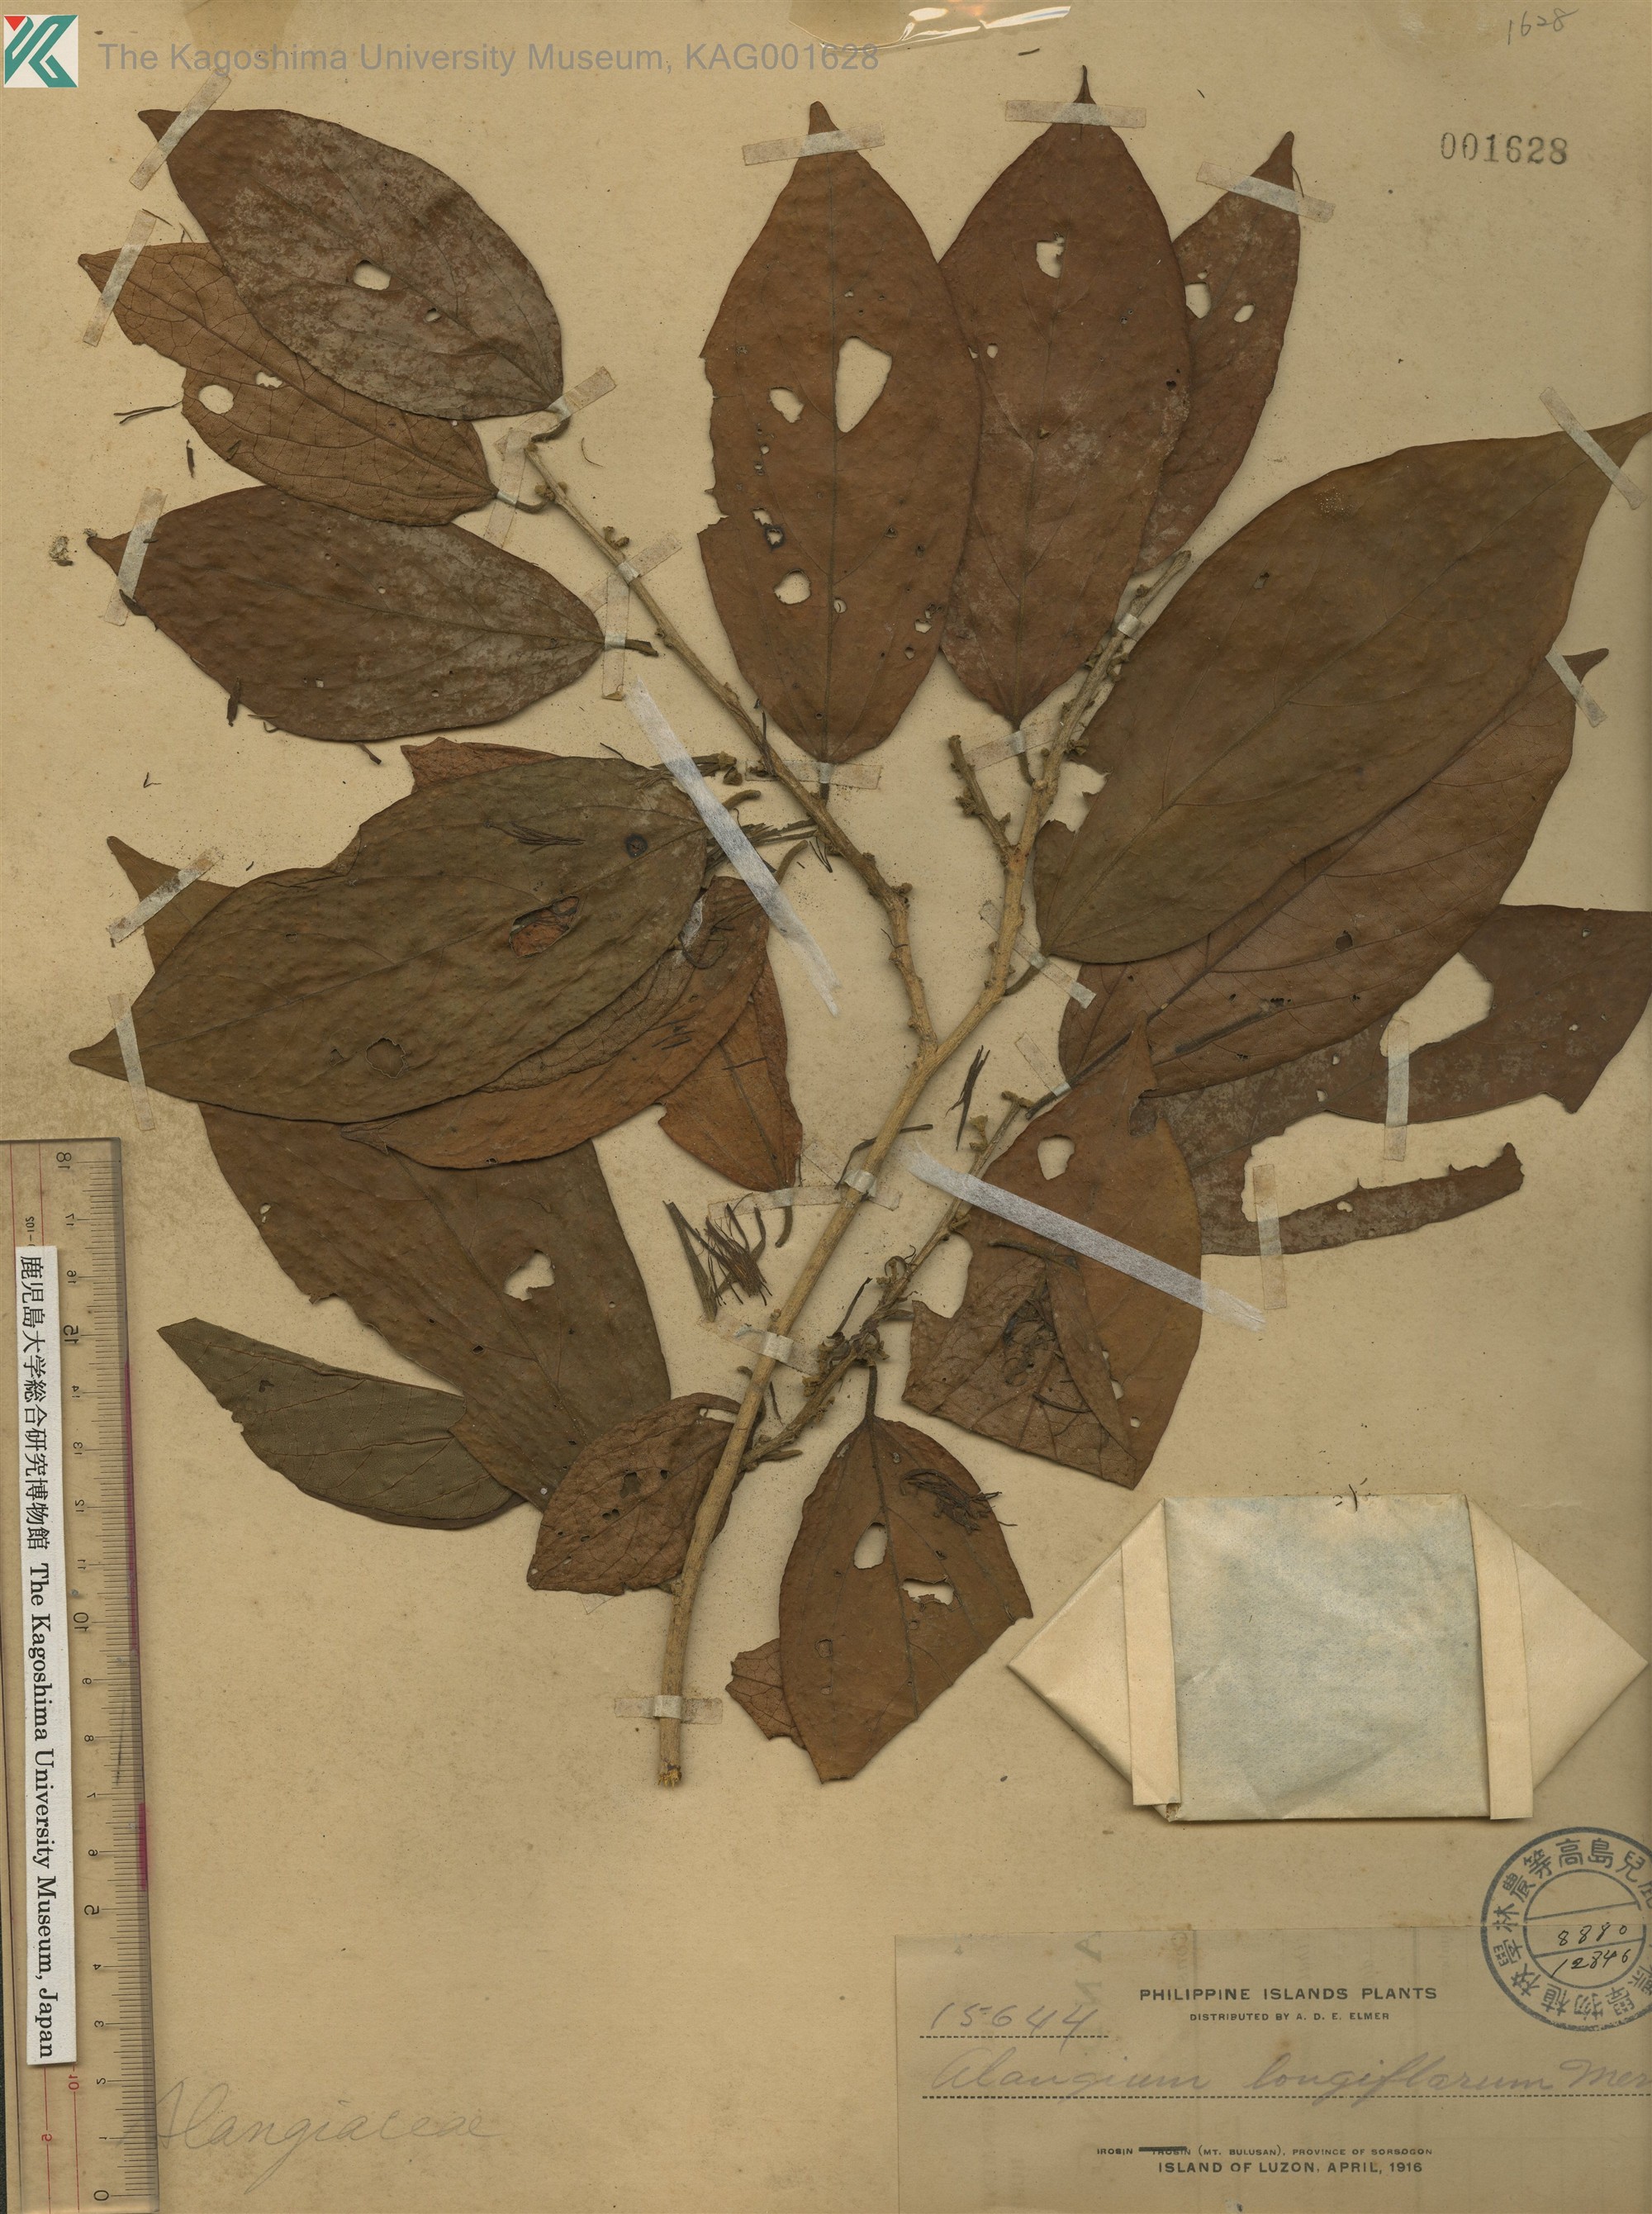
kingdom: Plantae
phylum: Tracheophyta
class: Magnoliopsida
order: Cornales
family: Cornaceae
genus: Alangium
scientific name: Alangium longiflorum
